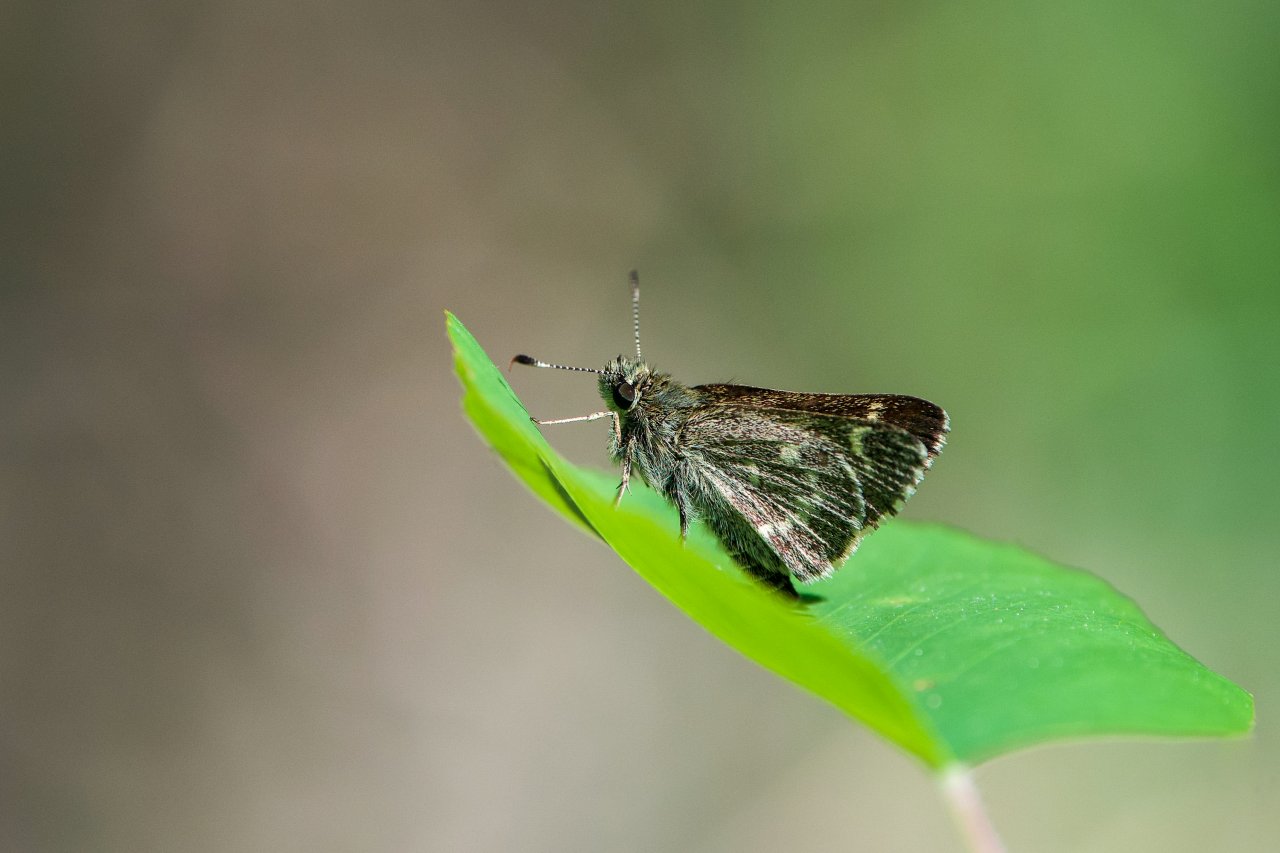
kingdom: Animalia
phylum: Arthropoda
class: Insecta
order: Lepidoptera
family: Hesperiidae
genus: Mastor
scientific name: Mastor hegon
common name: Pepper and Salt Skipper
